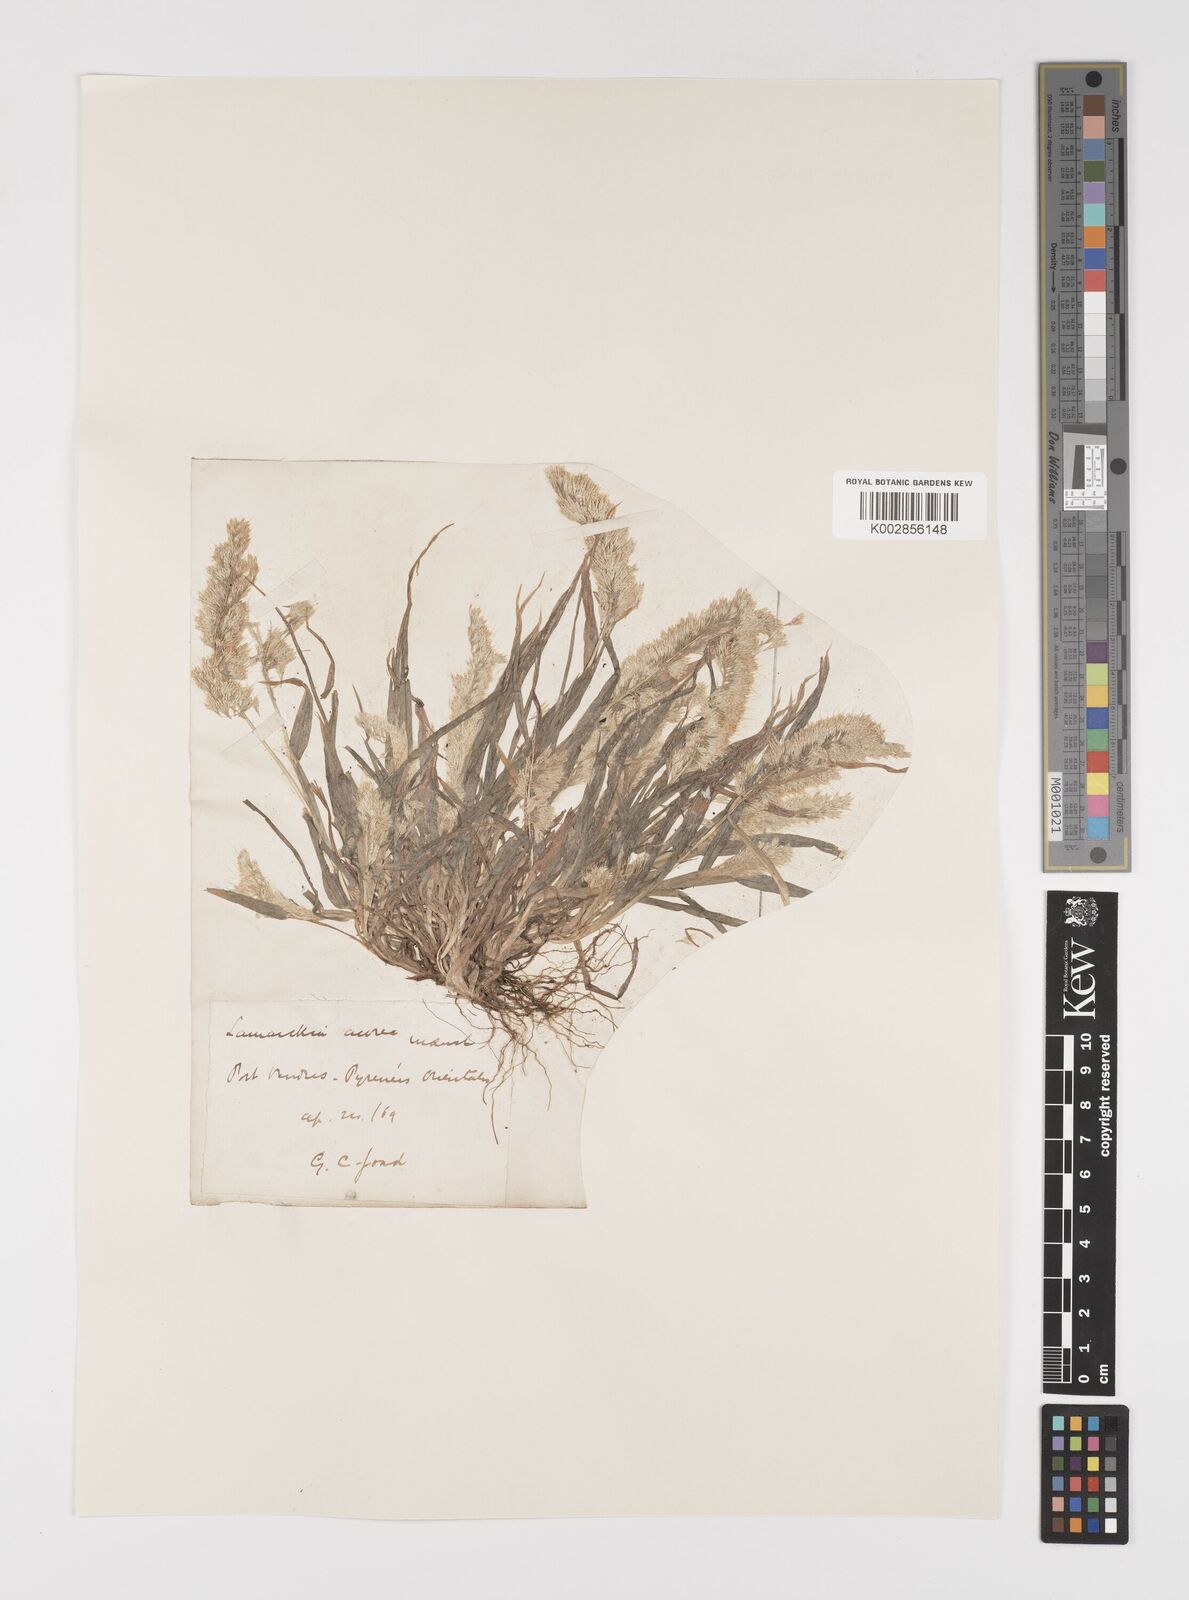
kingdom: Plantae
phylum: Tracheophyta
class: Liliopsida
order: Poales
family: Poaceae
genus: Lamarckia
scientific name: Lamarckia aurea
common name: Golden dog's-tail
